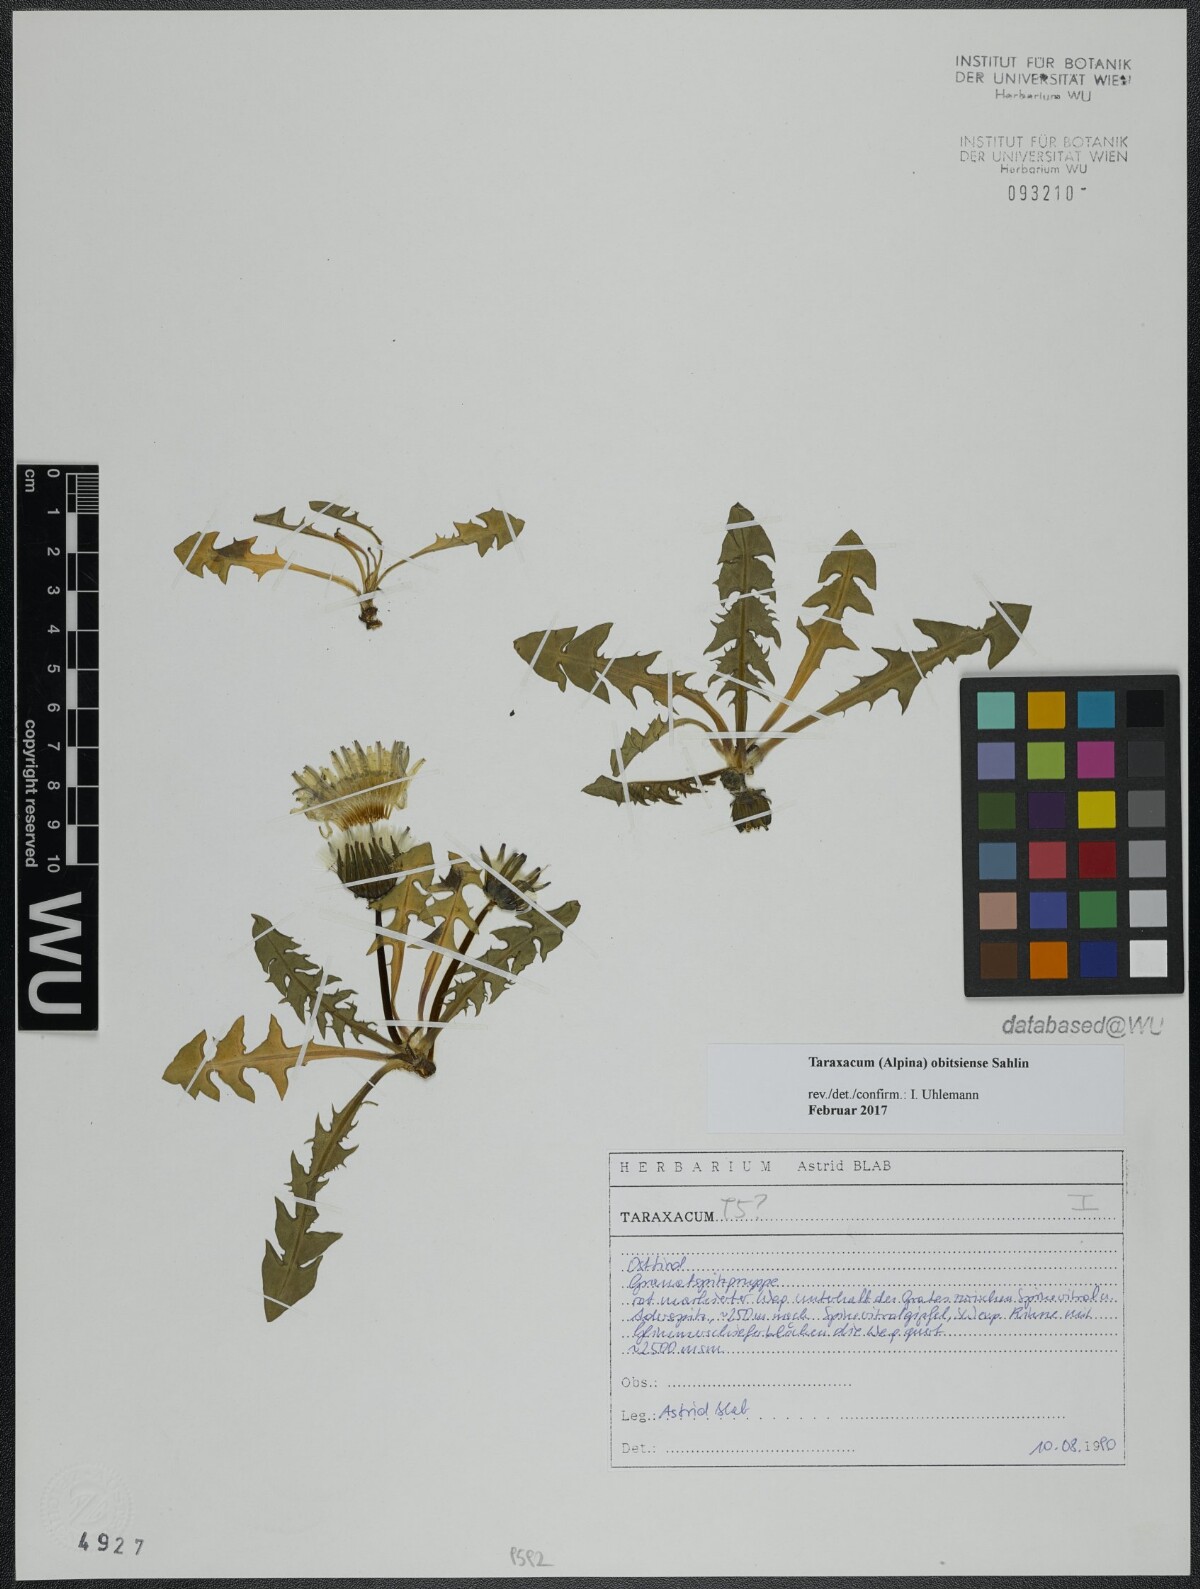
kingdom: Plantae
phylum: Tracheophyta
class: Magnoliopsida
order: Asterales
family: Asteraceae
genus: Taraxacum
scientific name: Taraxacum obitsiense
